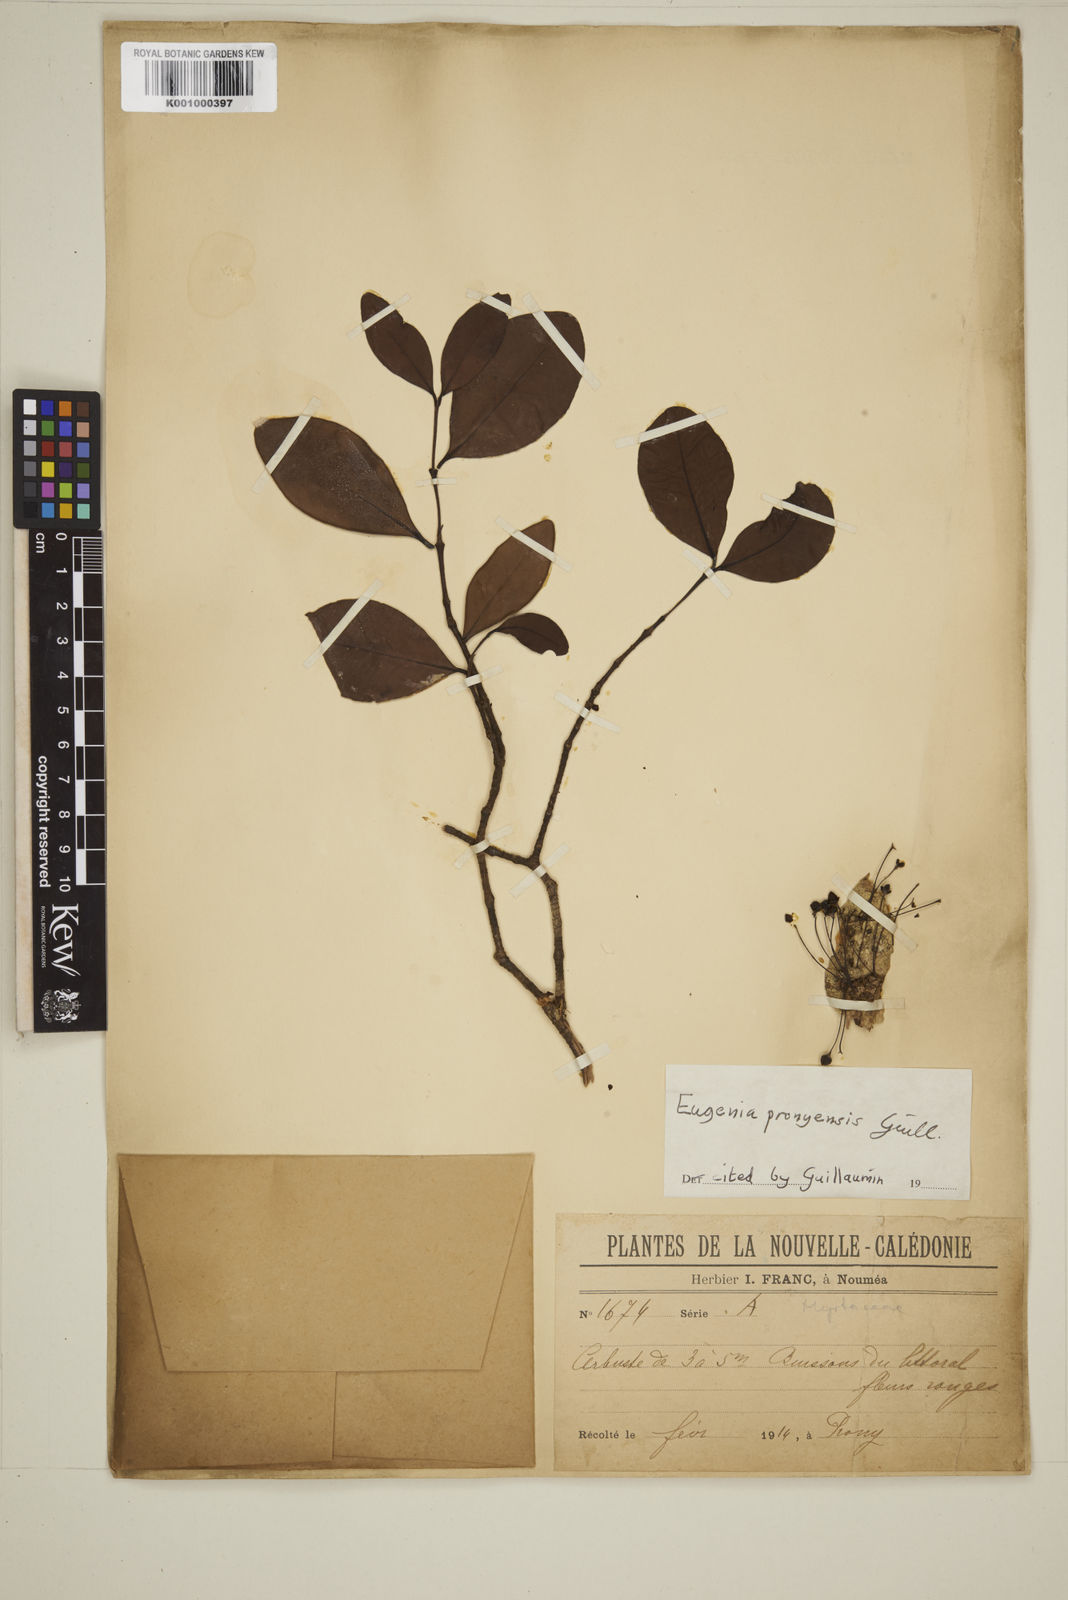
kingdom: Plantae
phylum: Tracheophyta
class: Magnoliopsida
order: Myrtales
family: Myrtaceae
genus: Eugenia
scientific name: Eugenia pronyensis
